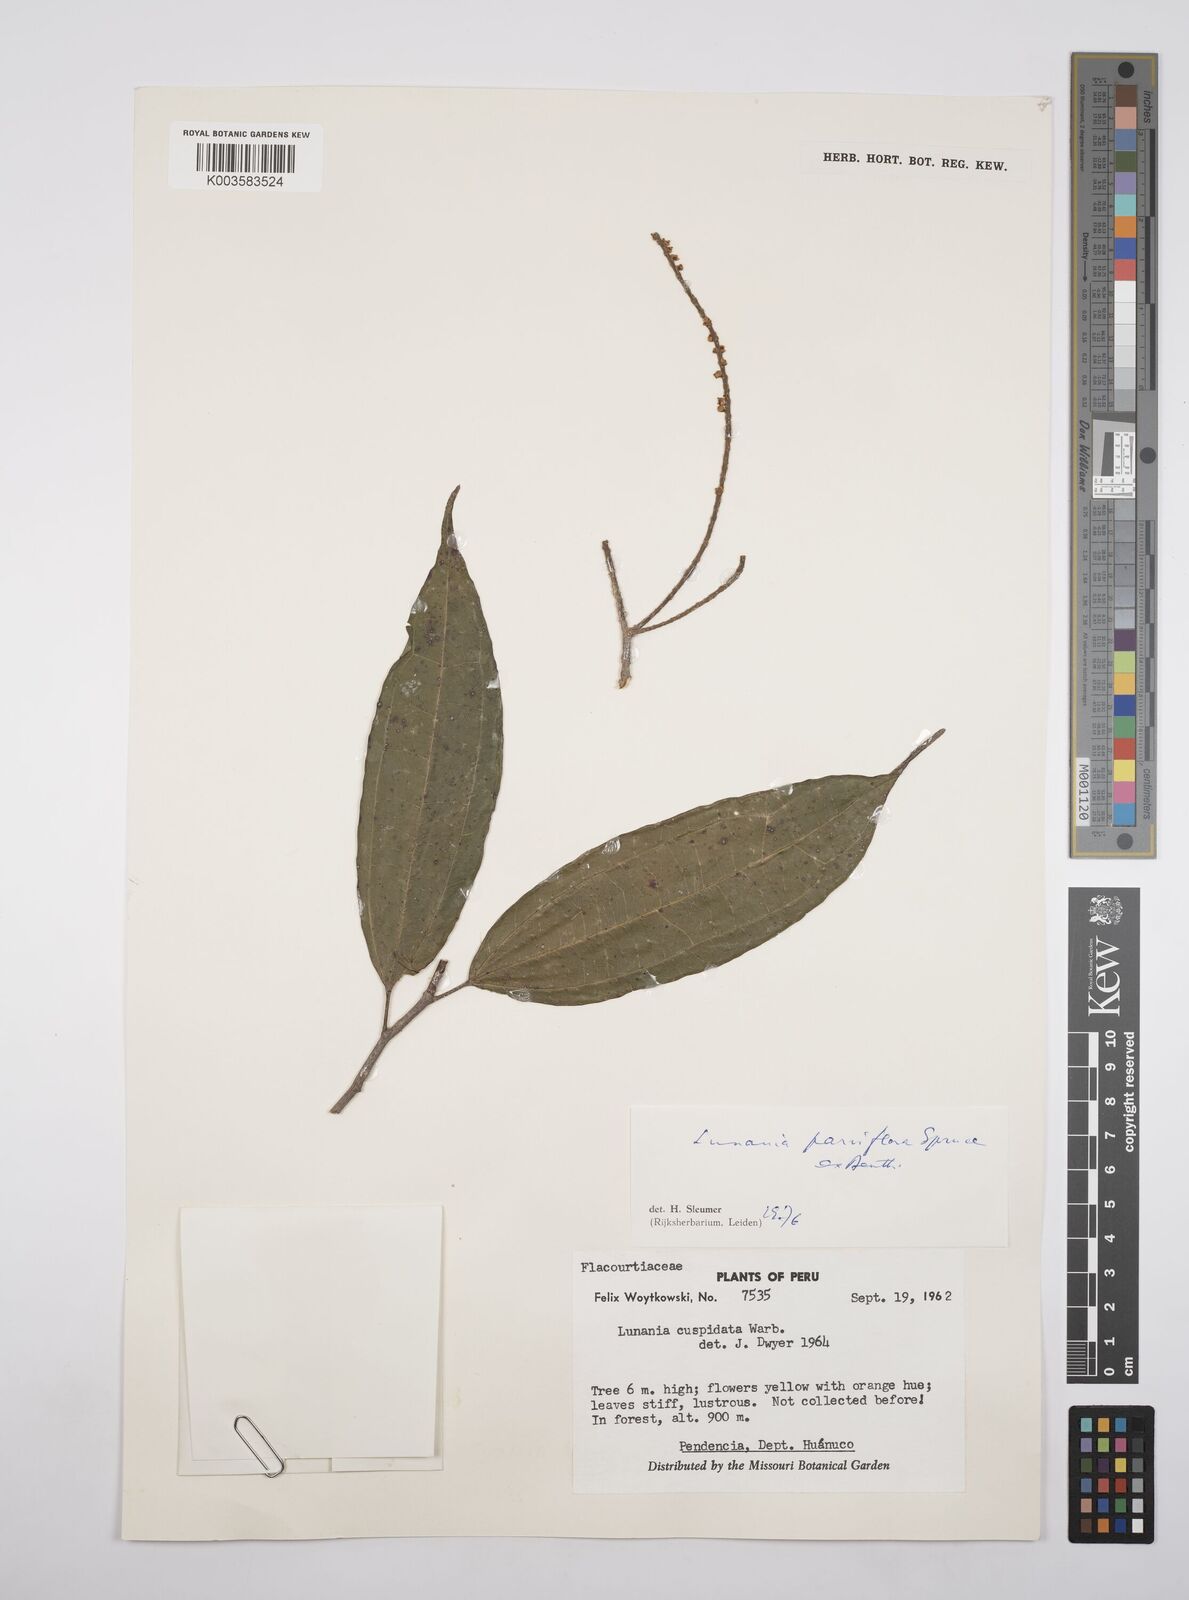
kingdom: Plantae
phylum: Tracheophyta
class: Magnoliopsida
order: Malpighiales
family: Salicaceae
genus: Lunania
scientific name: Lunania parviflora
